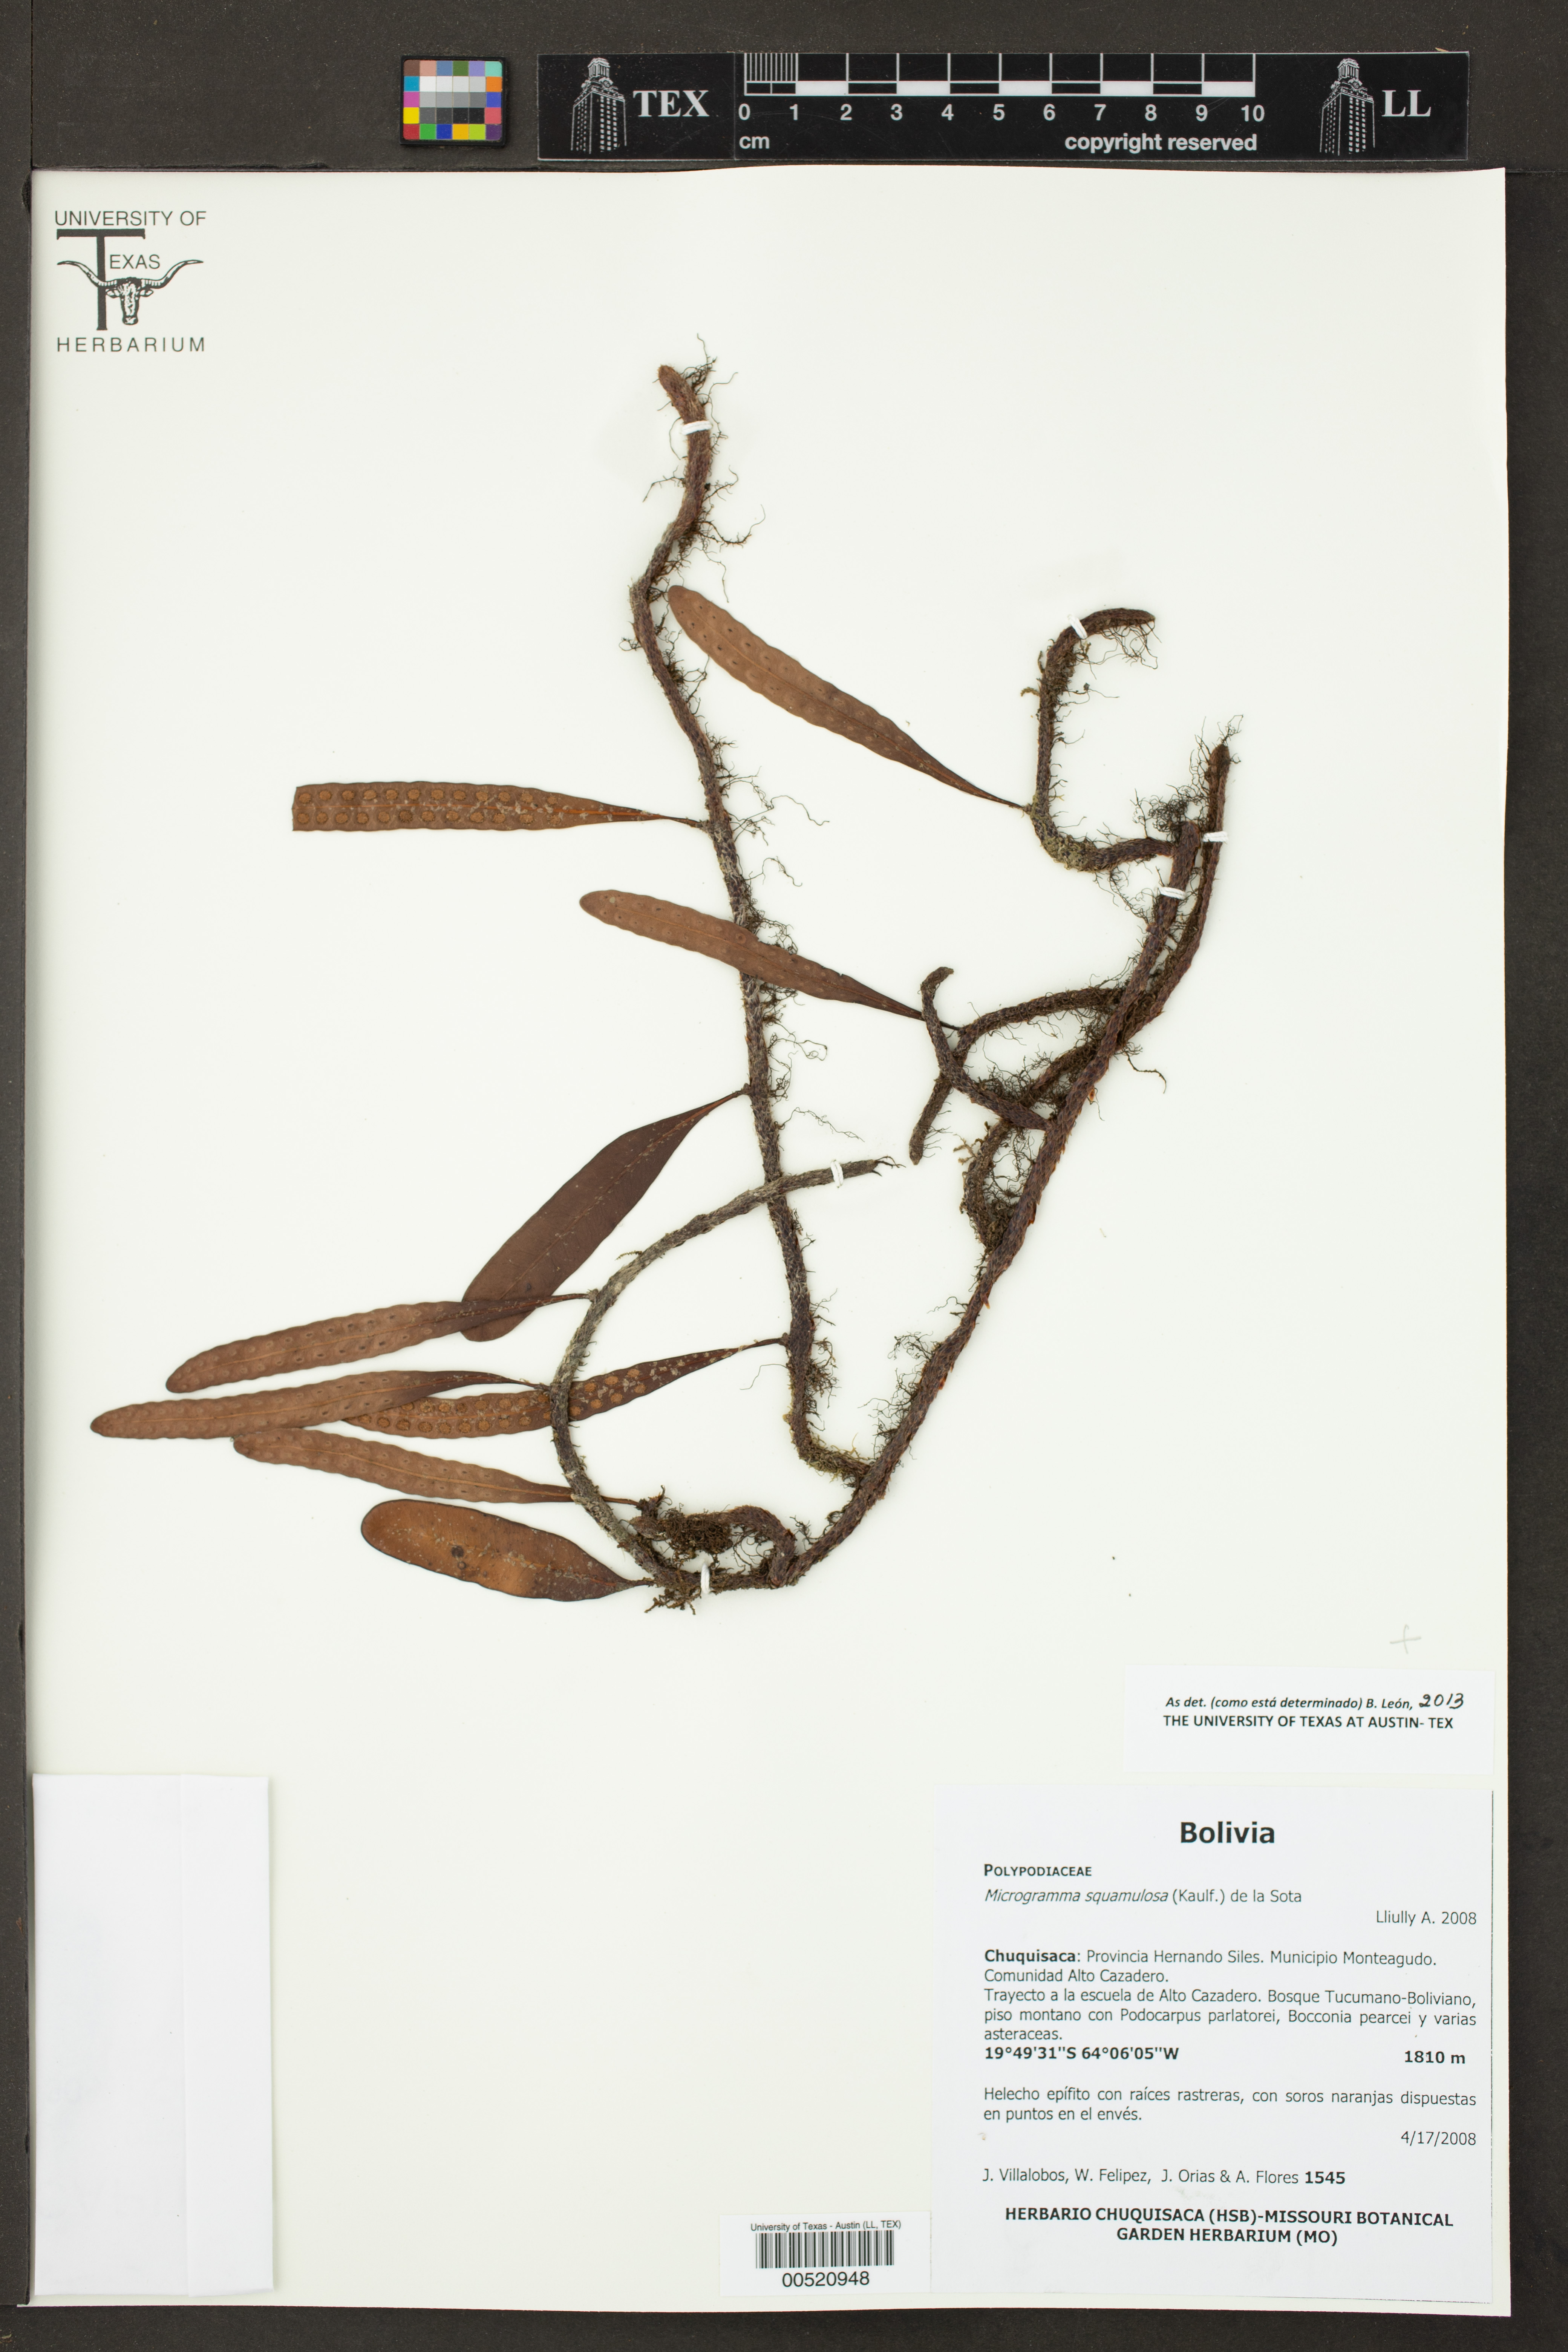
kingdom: Plantae
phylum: Tracheophyta
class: Polypodiopsida
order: Polypodiales
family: Polypodiaceae
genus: Microgramma
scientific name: Microgramma squamulosa
